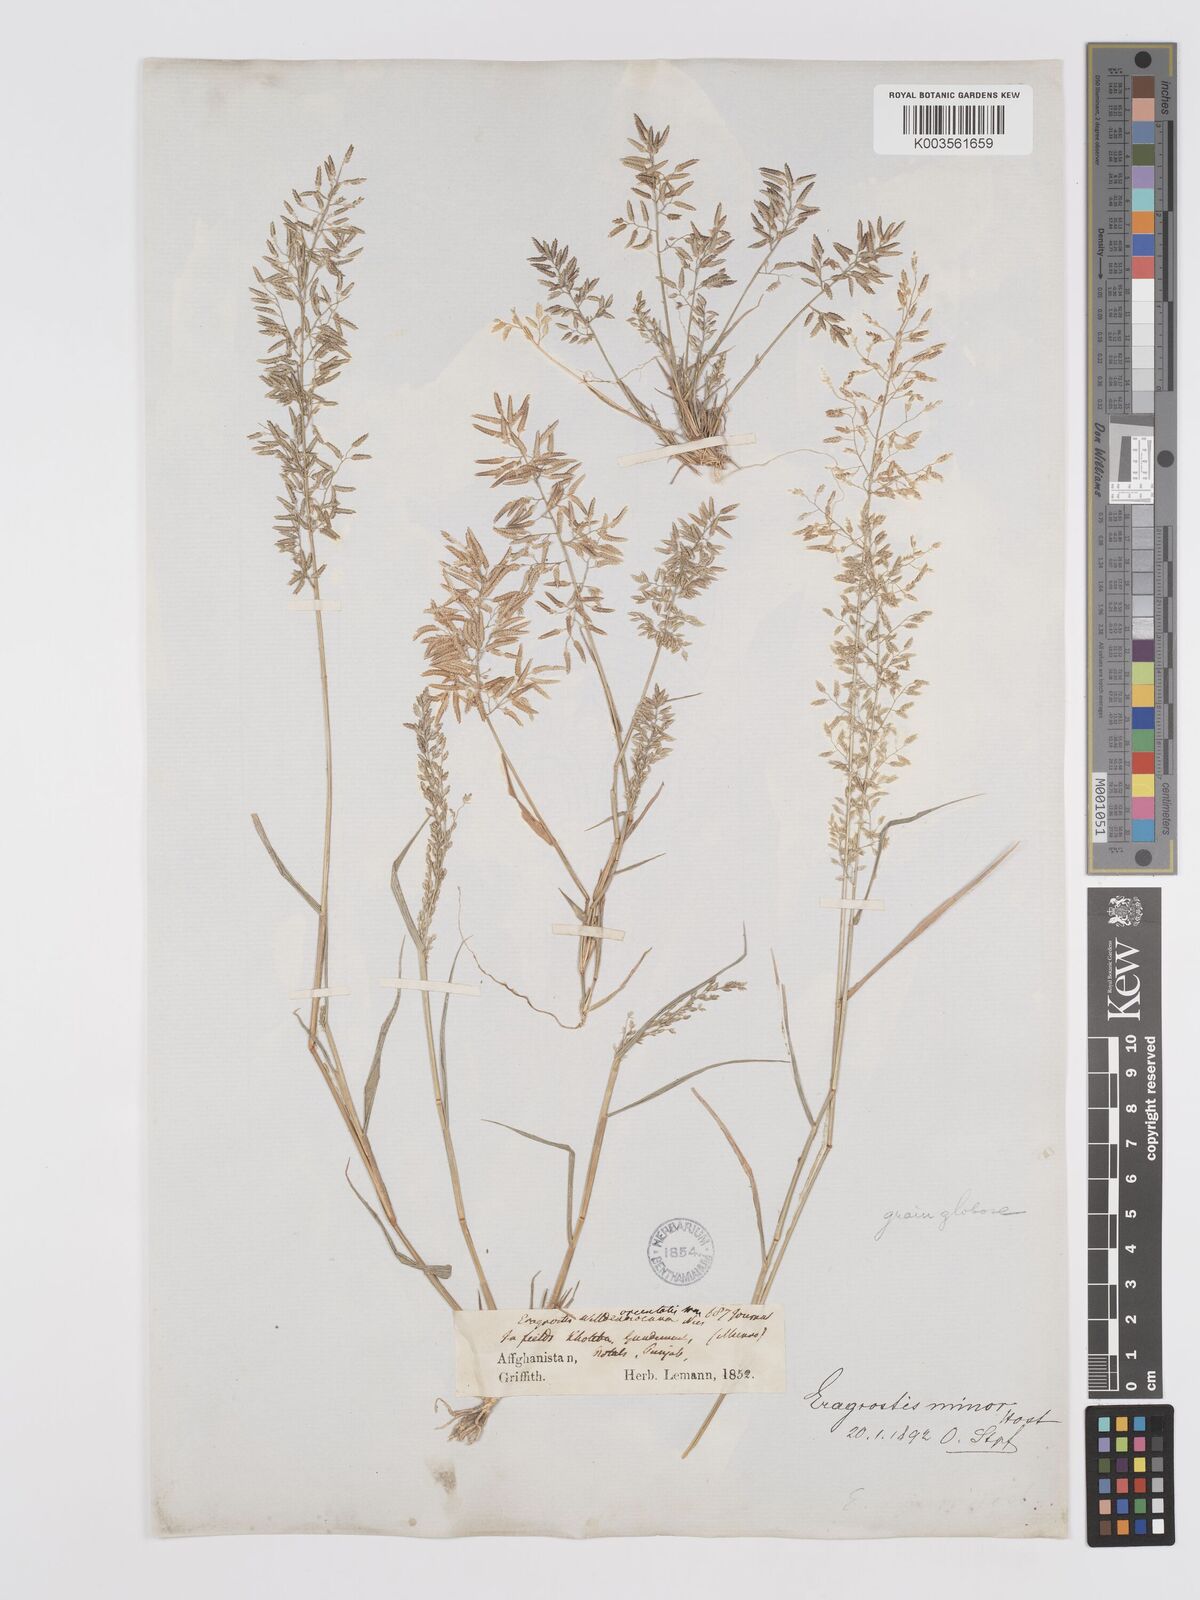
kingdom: Plantae
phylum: Tracheophyta
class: Liliopsida
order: Poales
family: Poaceae
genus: Eragrostis
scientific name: Eragrostis minor
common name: Small love-grass
